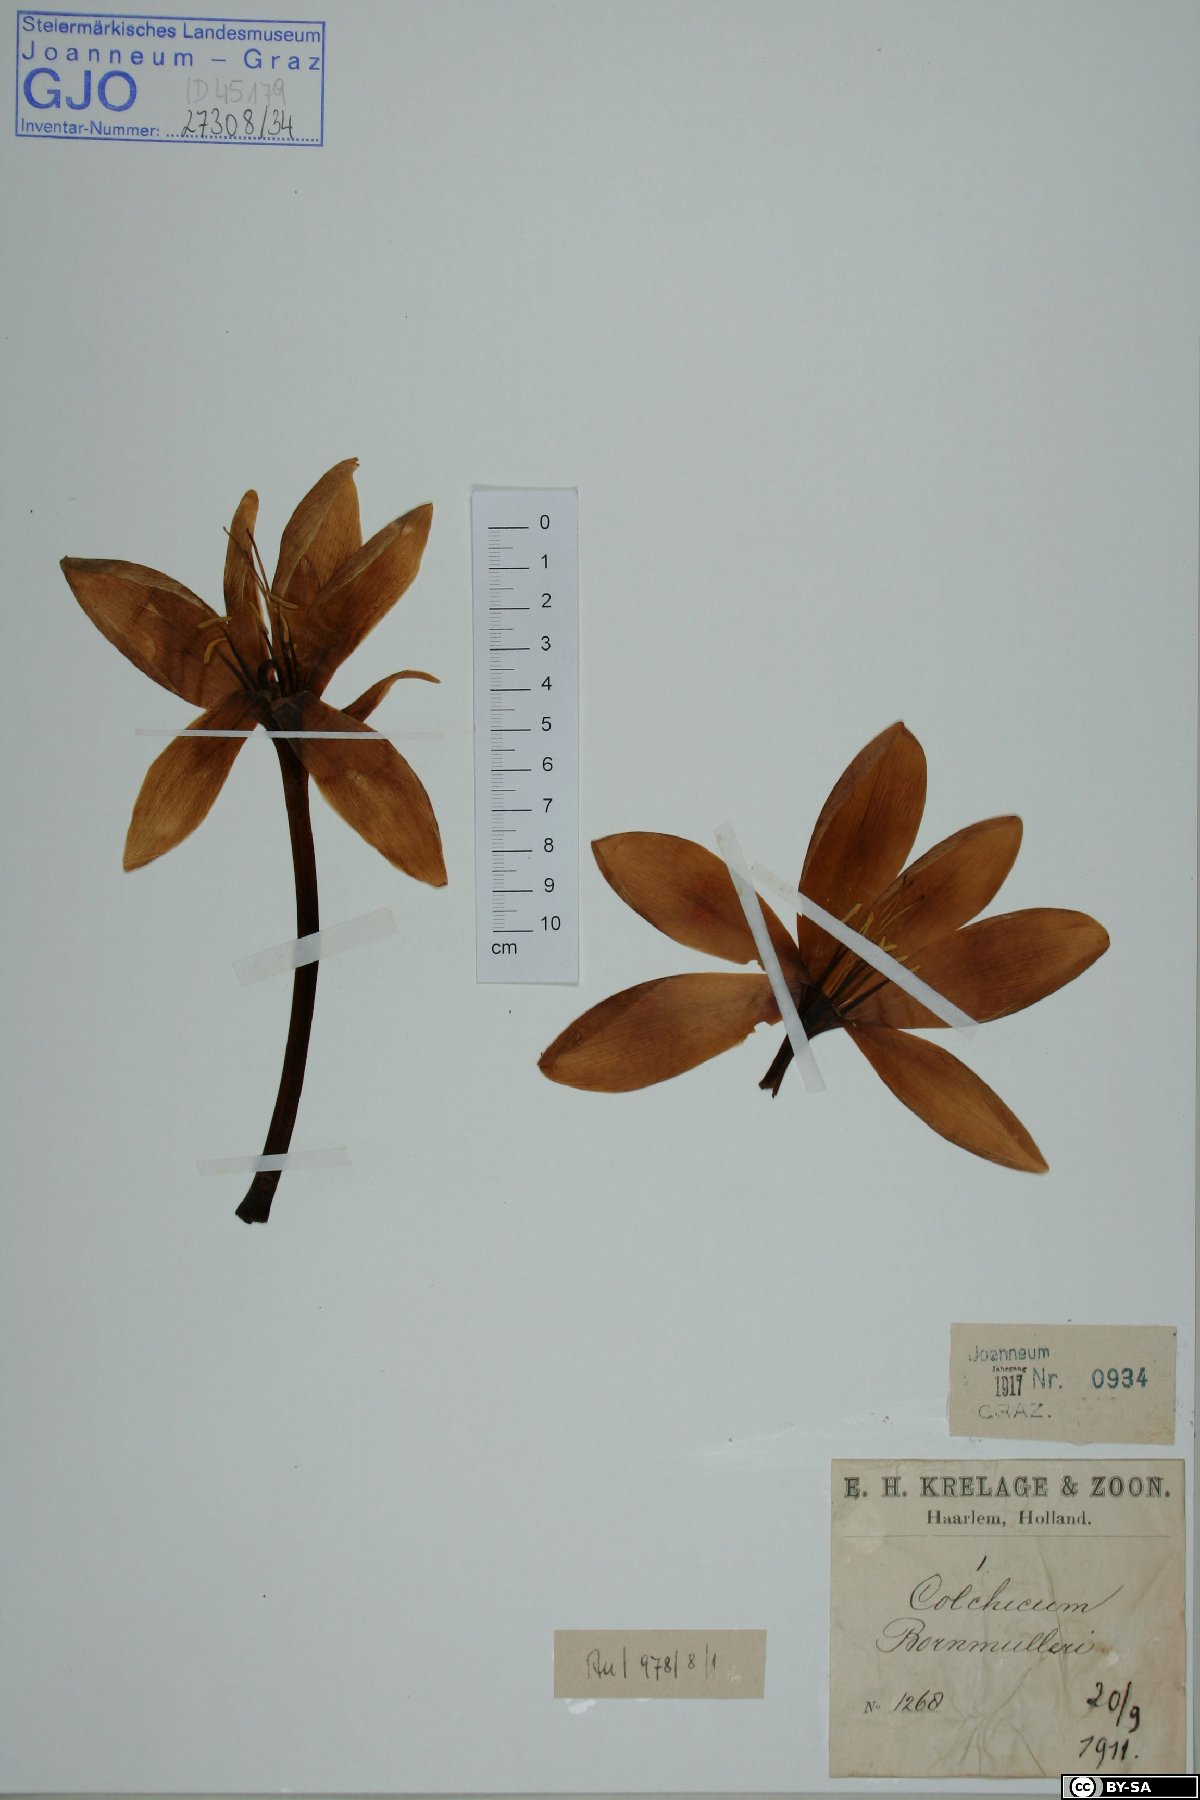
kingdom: Plantae
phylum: Tracheophyta
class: Liliopsida
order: Liliales
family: Colchicaceae
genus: Colchicum
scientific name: Colchicum speciosum
